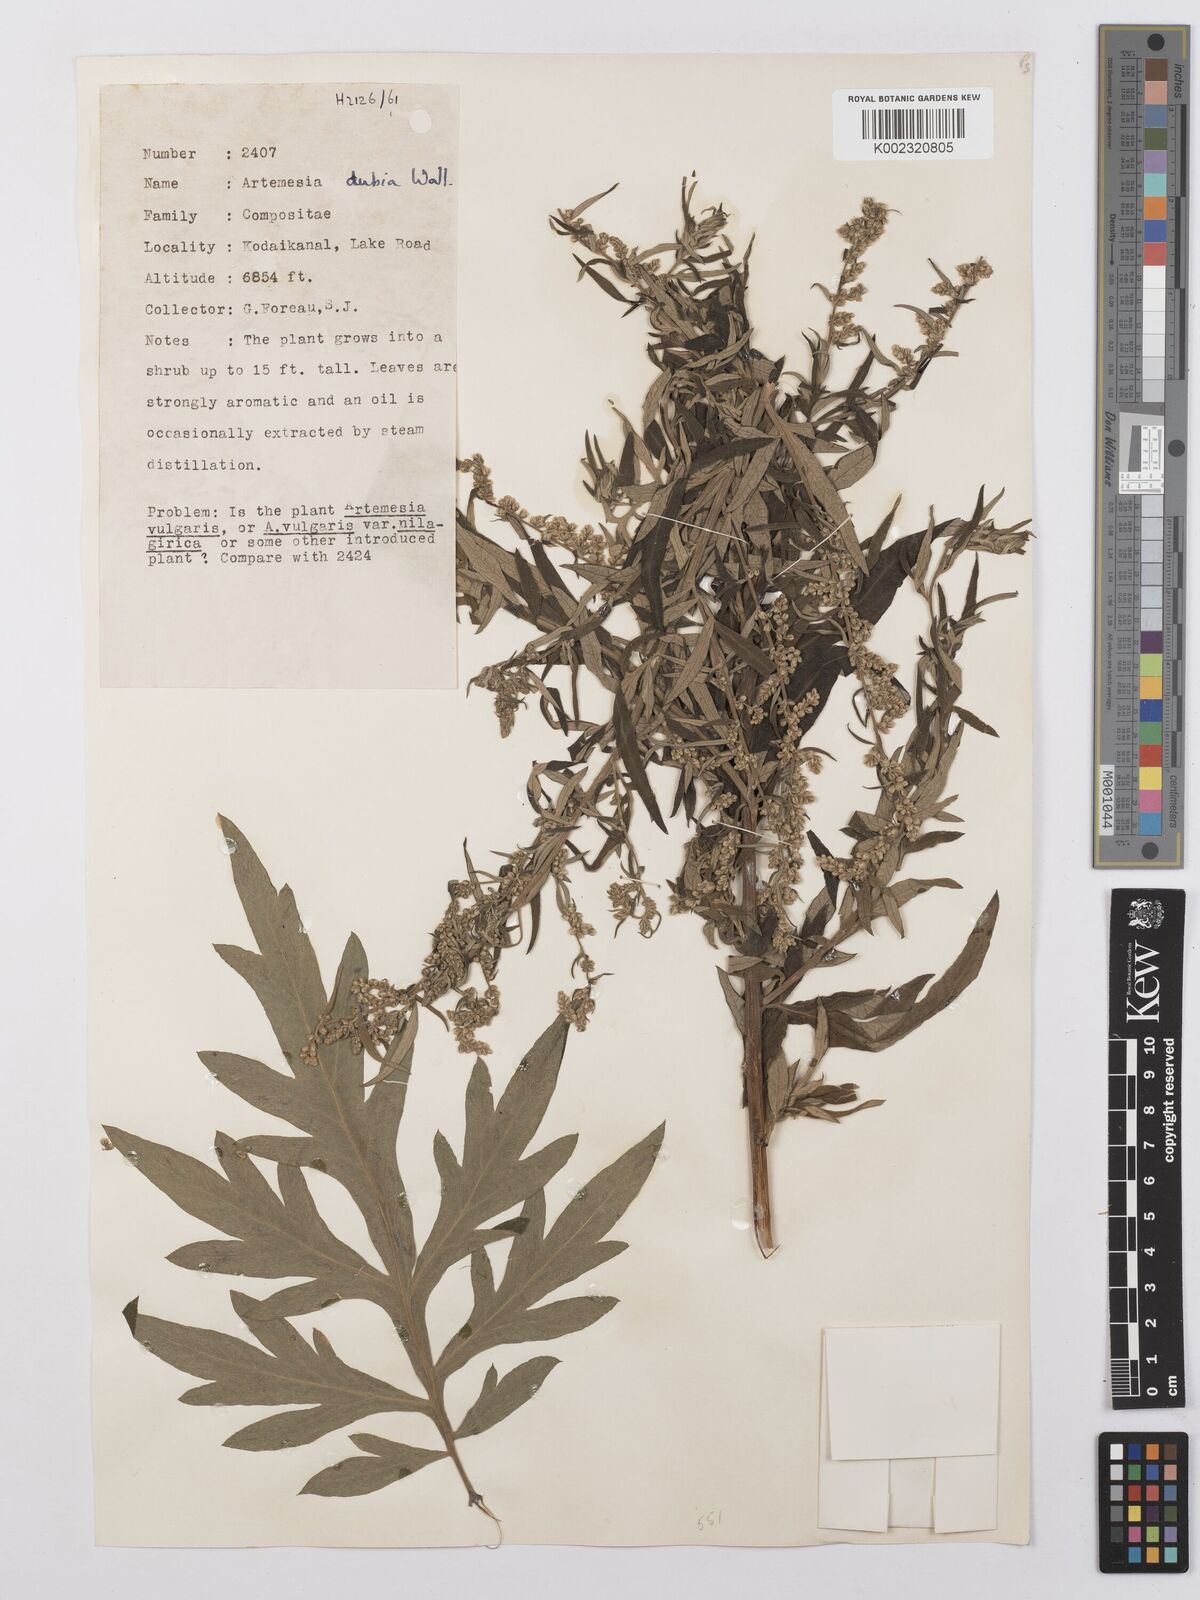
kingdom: Plantae
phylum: Tracheophyta
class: Magnoliopsida
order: Asterales
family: Asteraceae
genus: Artemisia
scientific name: Artemisia dubia
